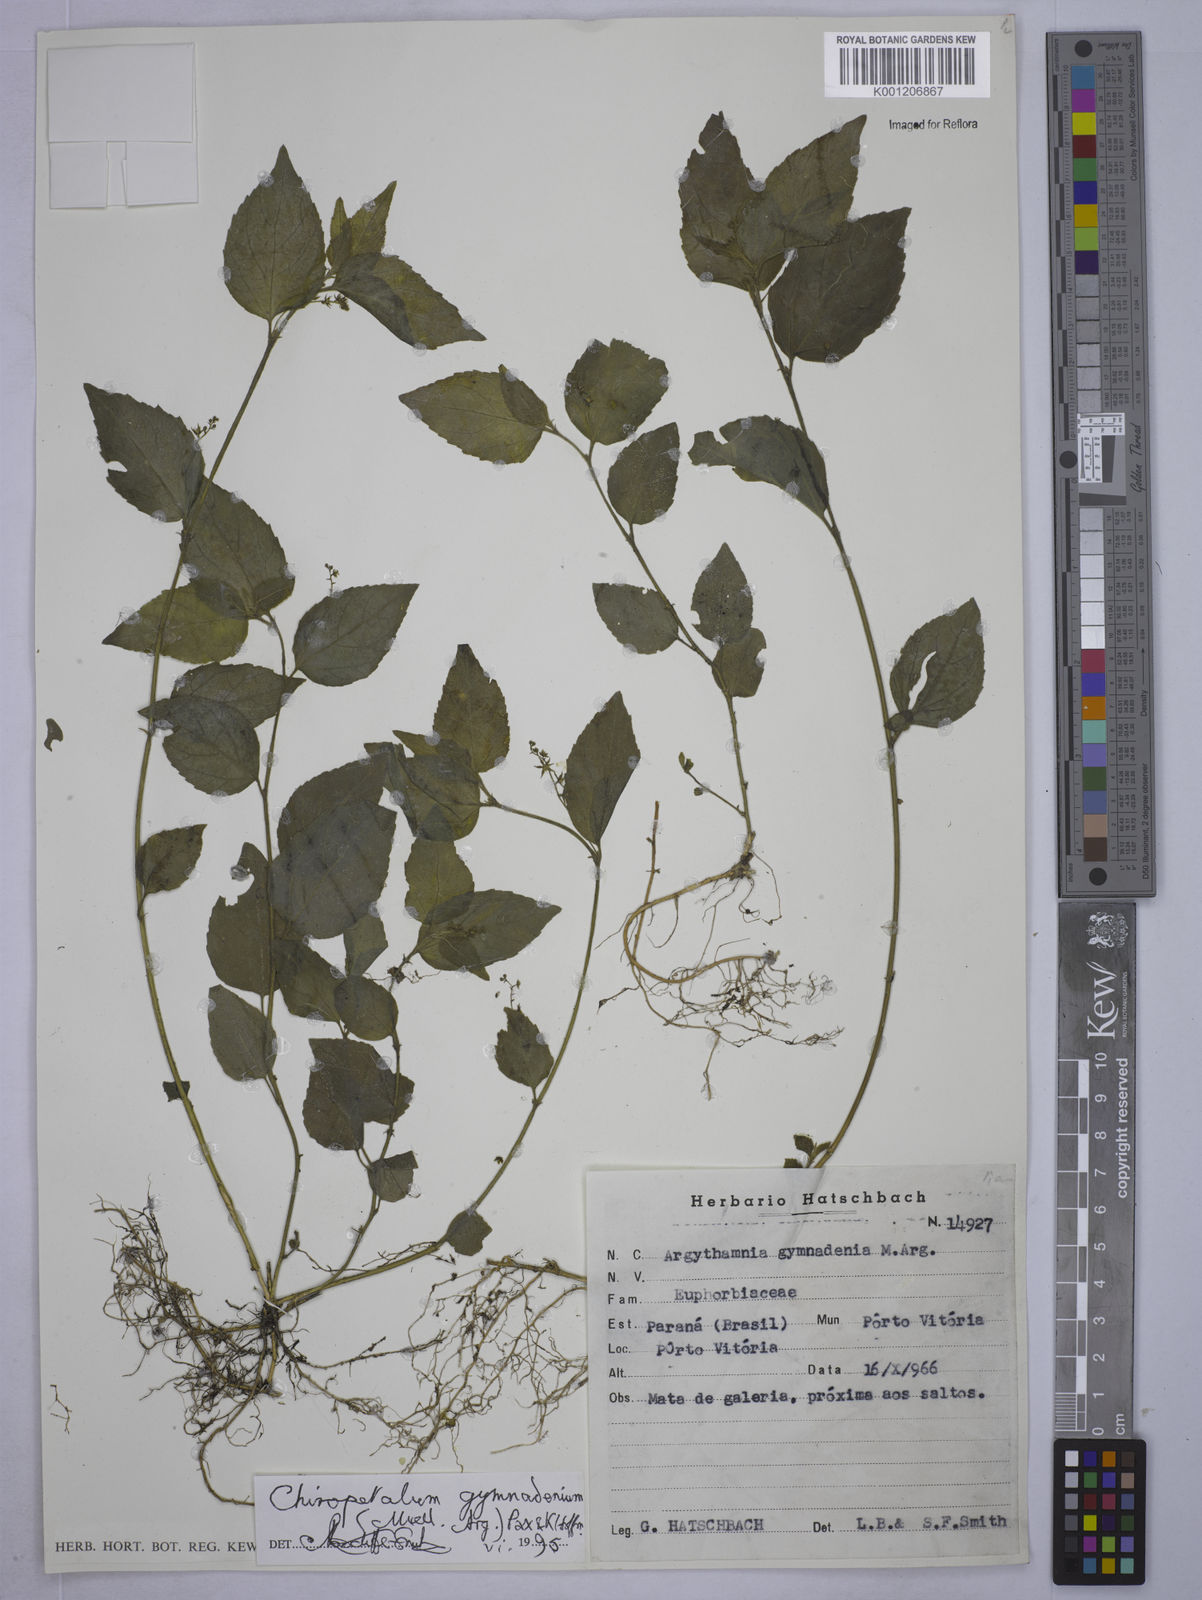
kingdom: Plantae
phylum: Tracheophyta
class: Magnoliopsida
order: Malpighiales
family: Euphorbiaceae
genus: Chiropetalum
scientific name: Chiropetalum
